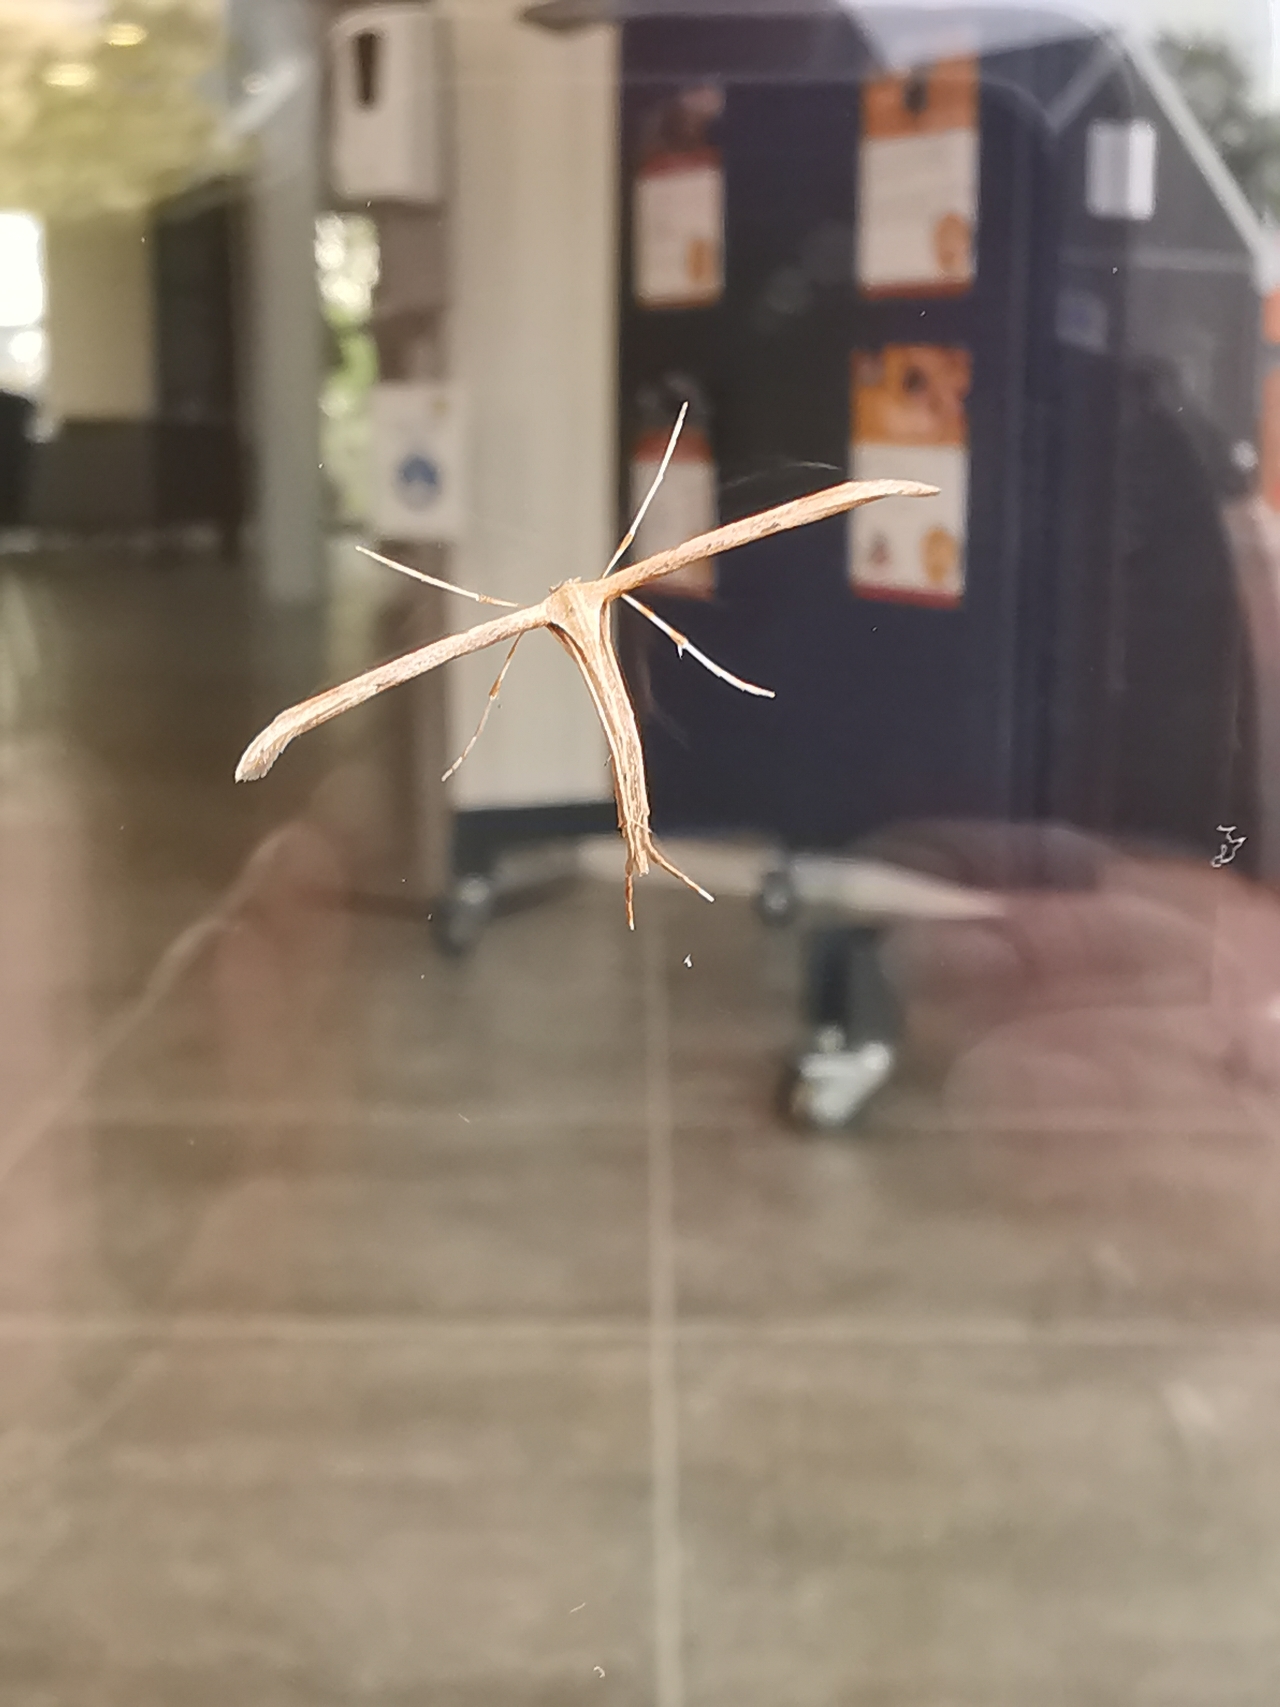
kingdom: Animalia
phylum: Arthropoda
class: Insecta
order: Lepidoptera
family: Pterophoridae
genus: Emmelina
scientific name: Emmelina monodactyla
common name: Snerlefjermøl
